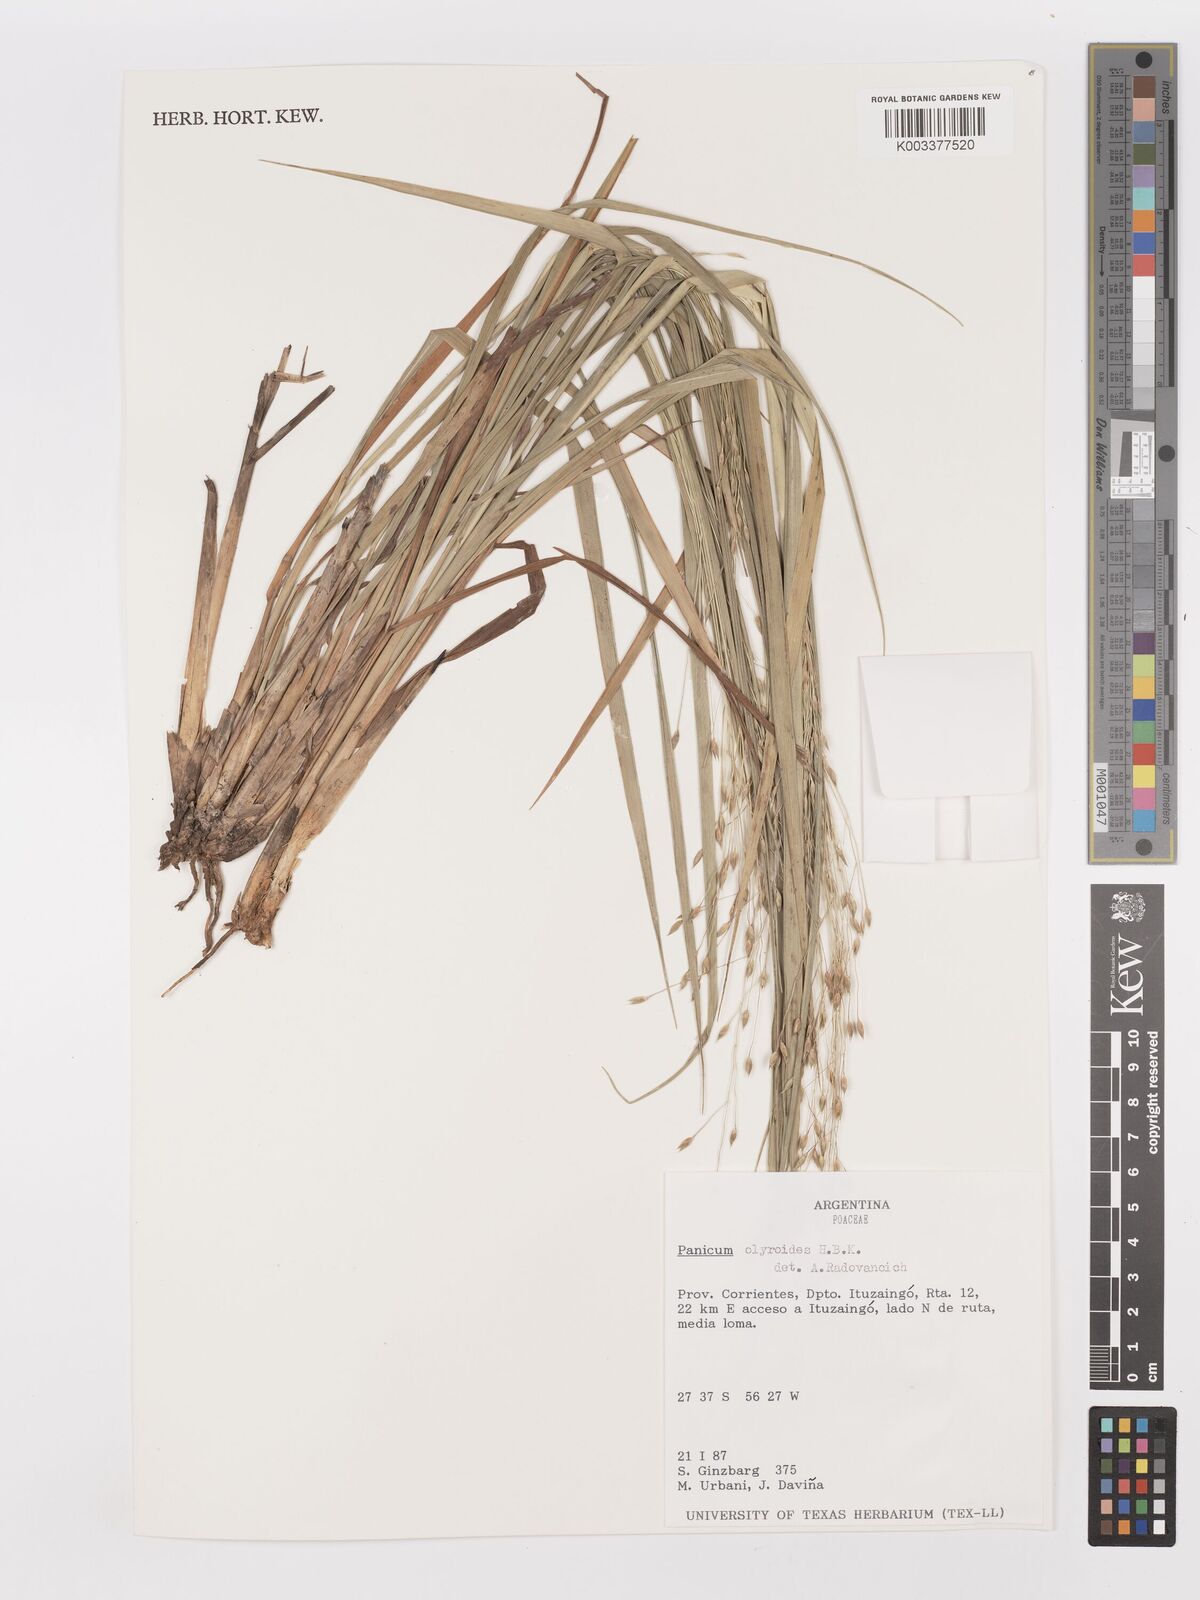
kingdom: Plantae
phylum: Tracheophyta
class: Liliopsida
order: Poales
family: Poaceae
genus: Panicum
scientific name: Panicum olyroides
